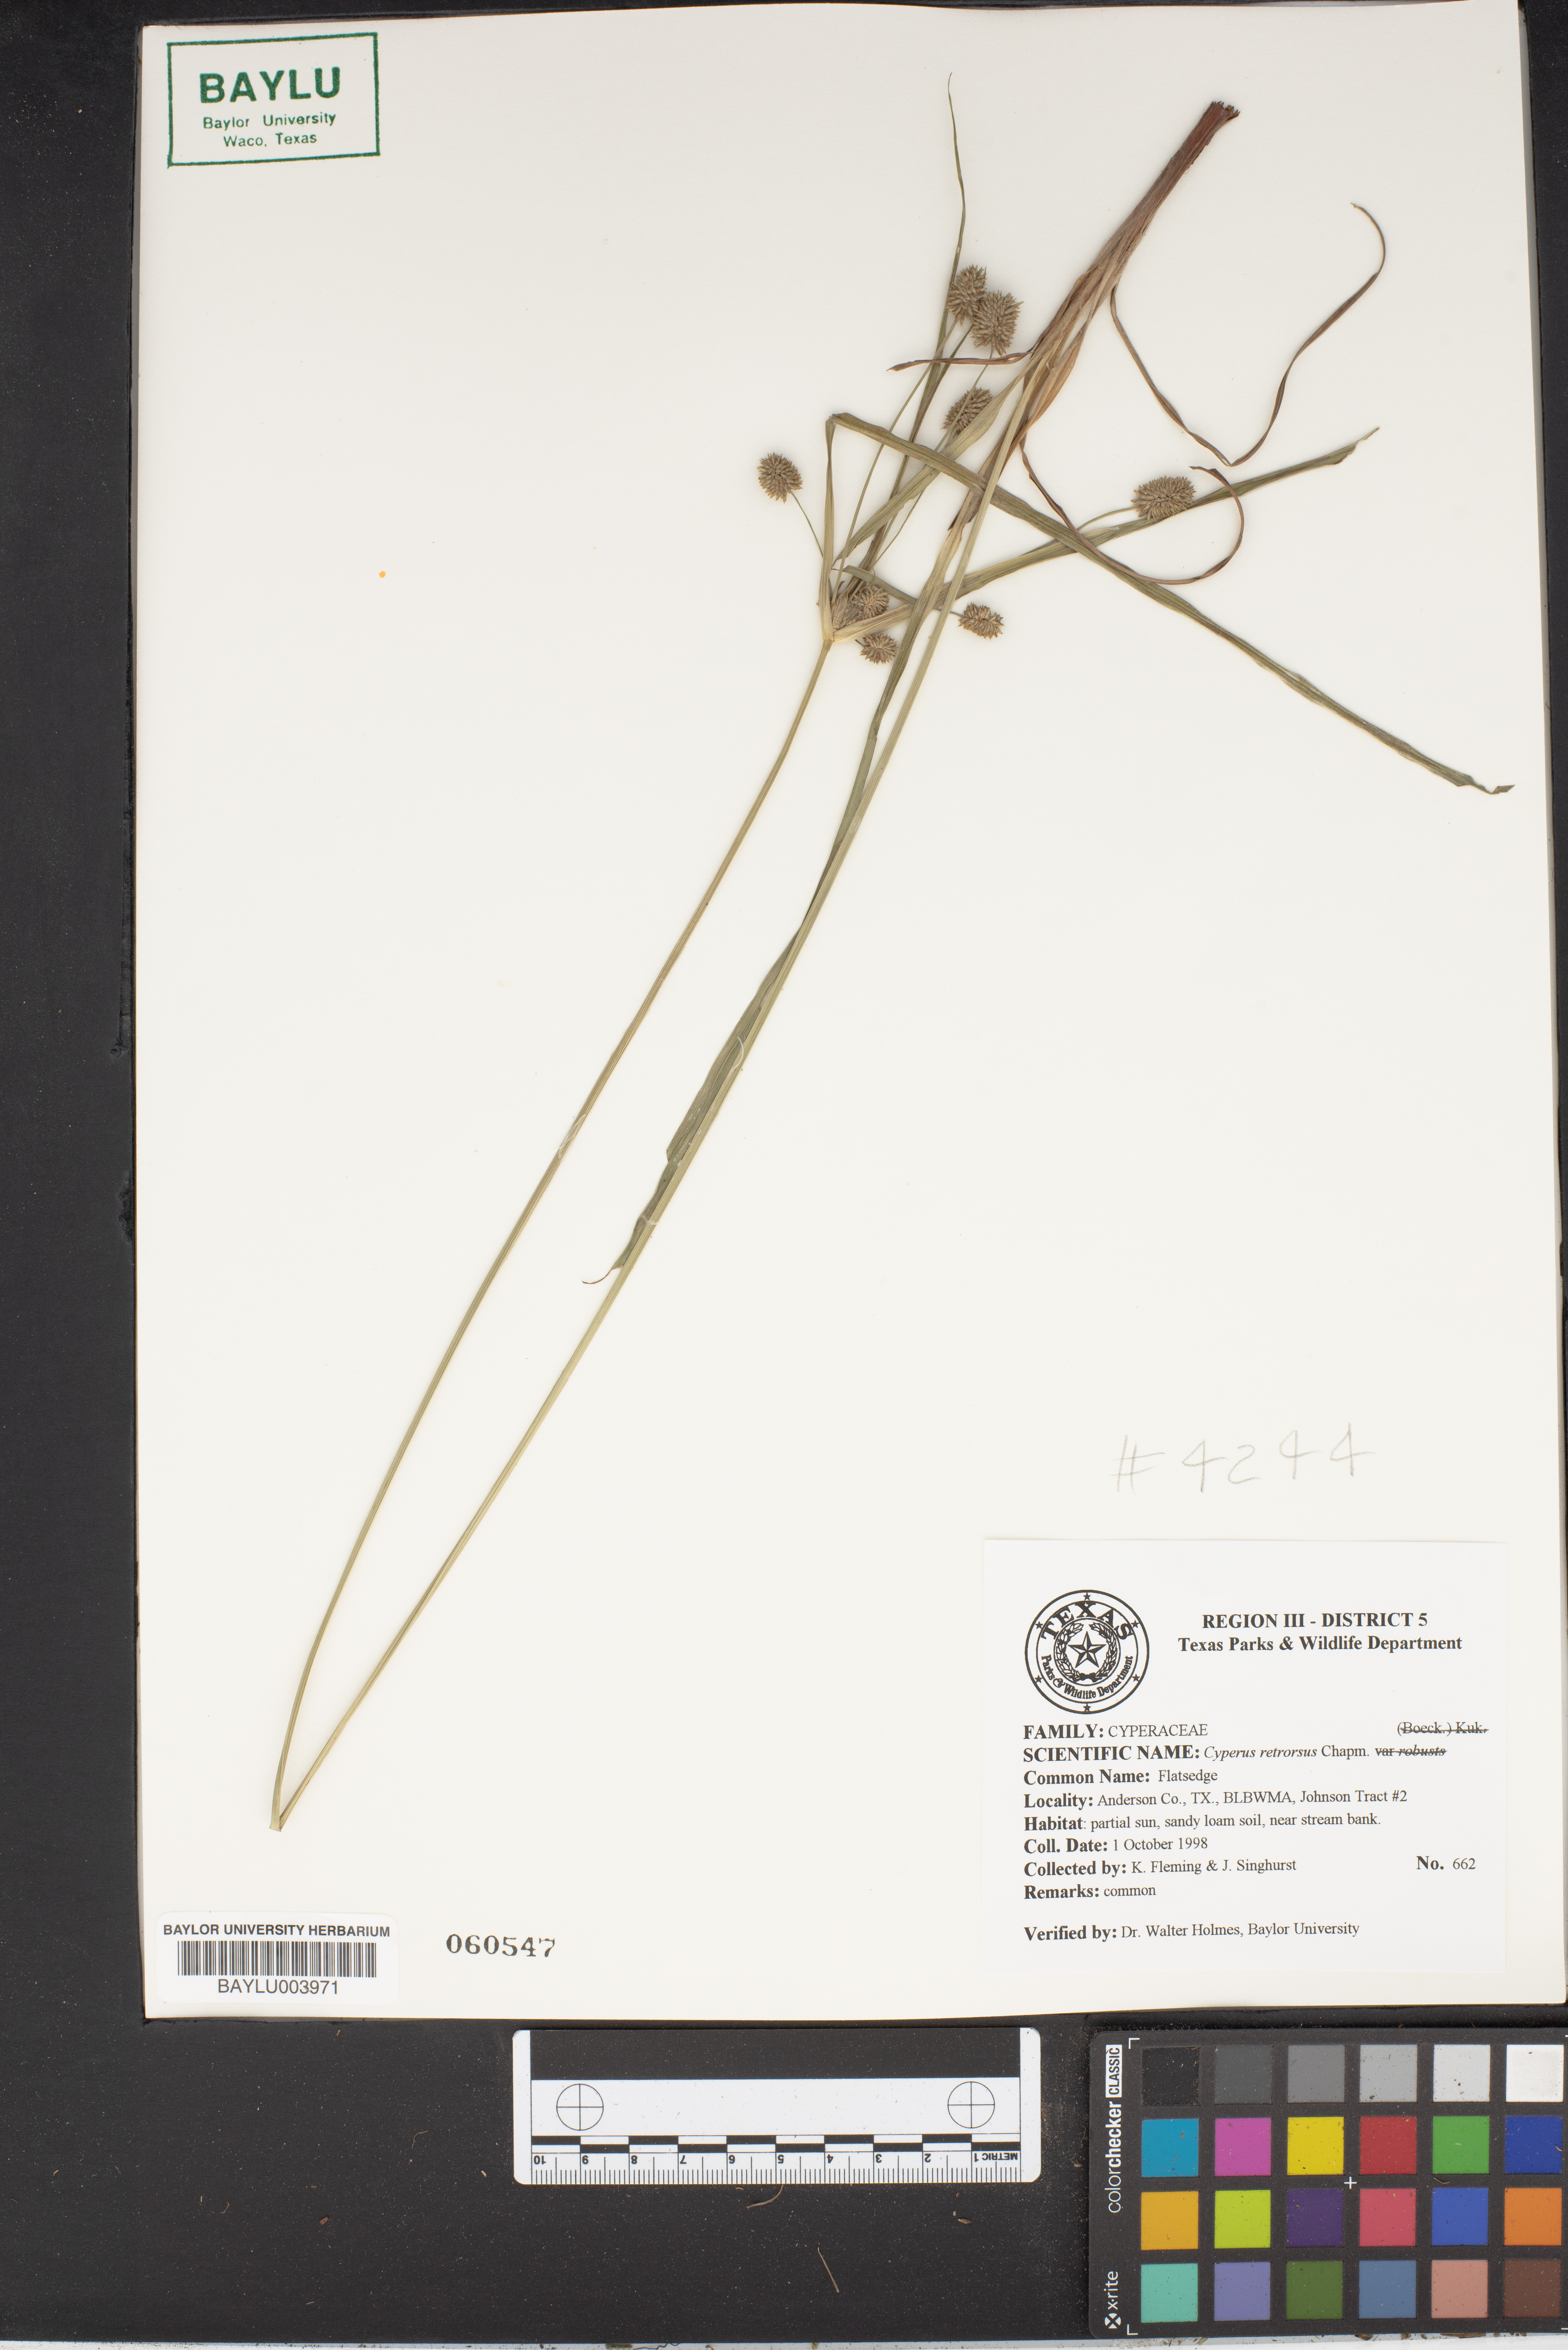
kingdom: Plantae
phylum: Tracheophyta
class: Liliopsida
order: Poales
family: Cyperaceae
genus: Cyperus
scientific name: Cyperus retrorsus
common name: Pinebarren flat sedge
